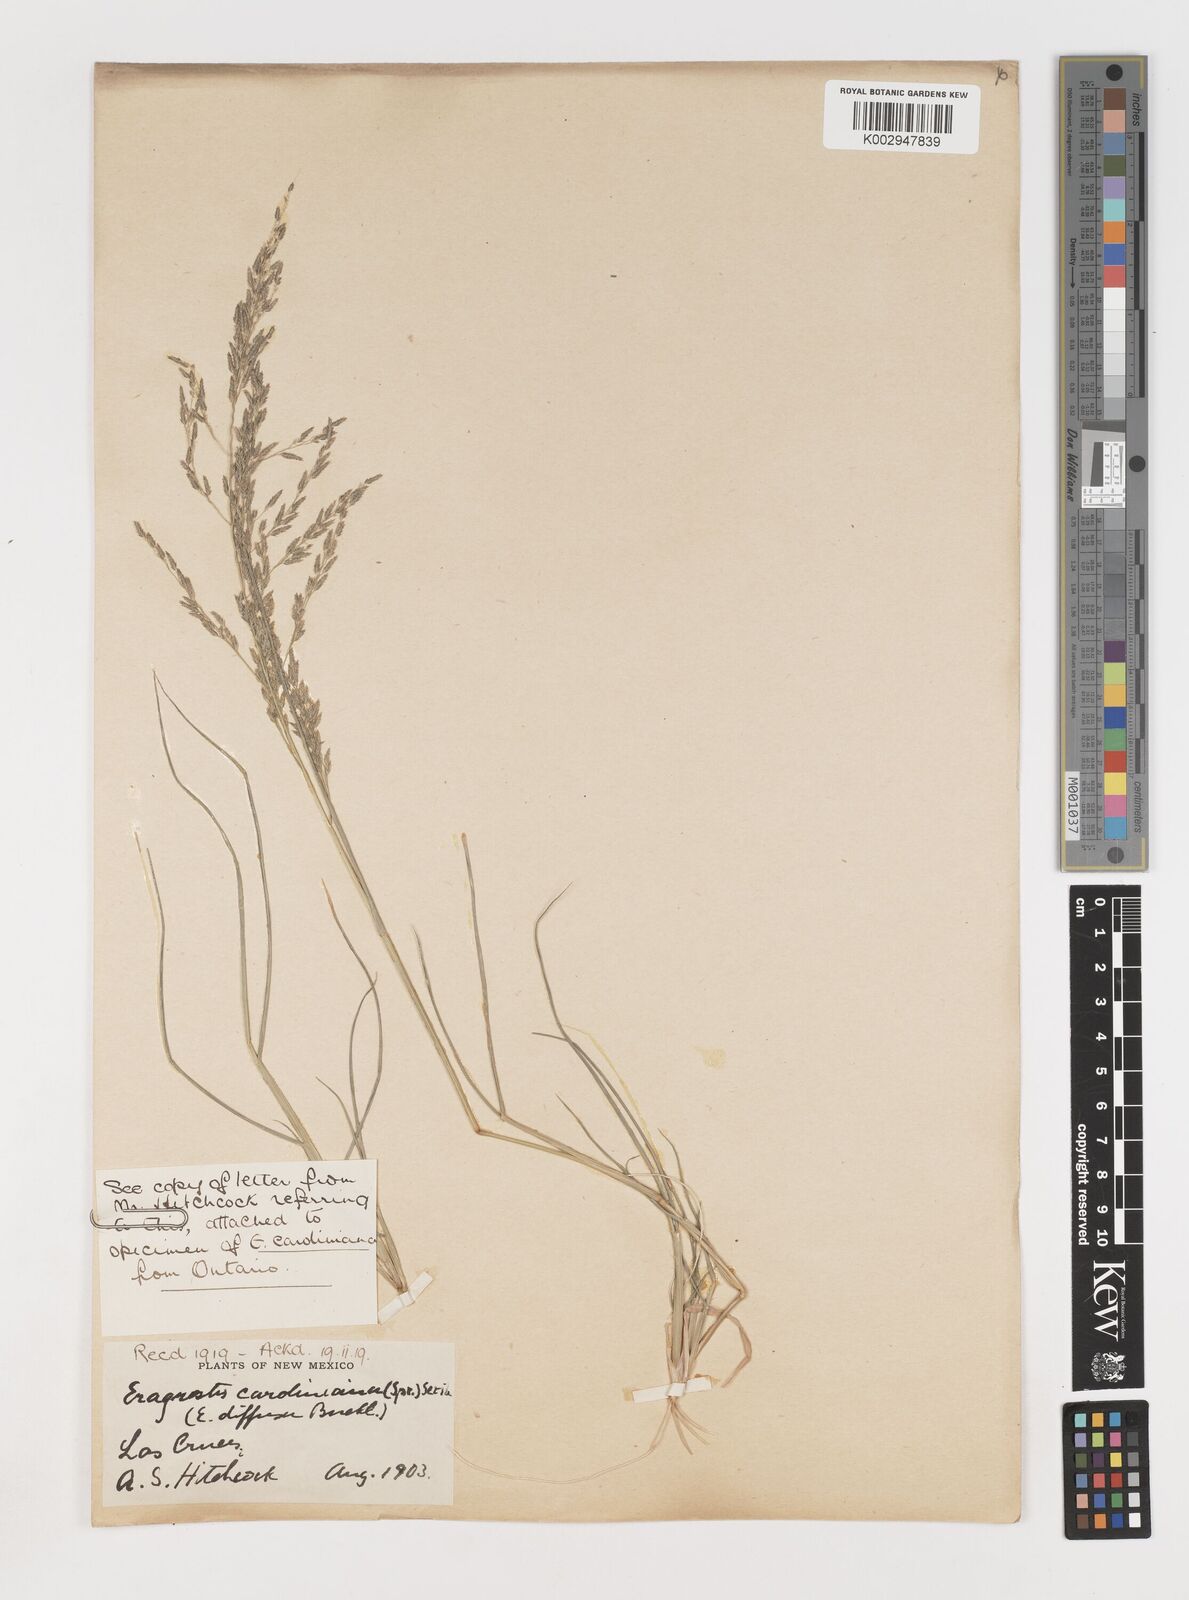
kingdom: Plantae
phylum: Tracheophyta
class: Liliopsida
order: Poales
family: Poaceae
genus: Eragrostis
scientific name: Eragrostis pectinacea
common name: Tufted lovegrass
